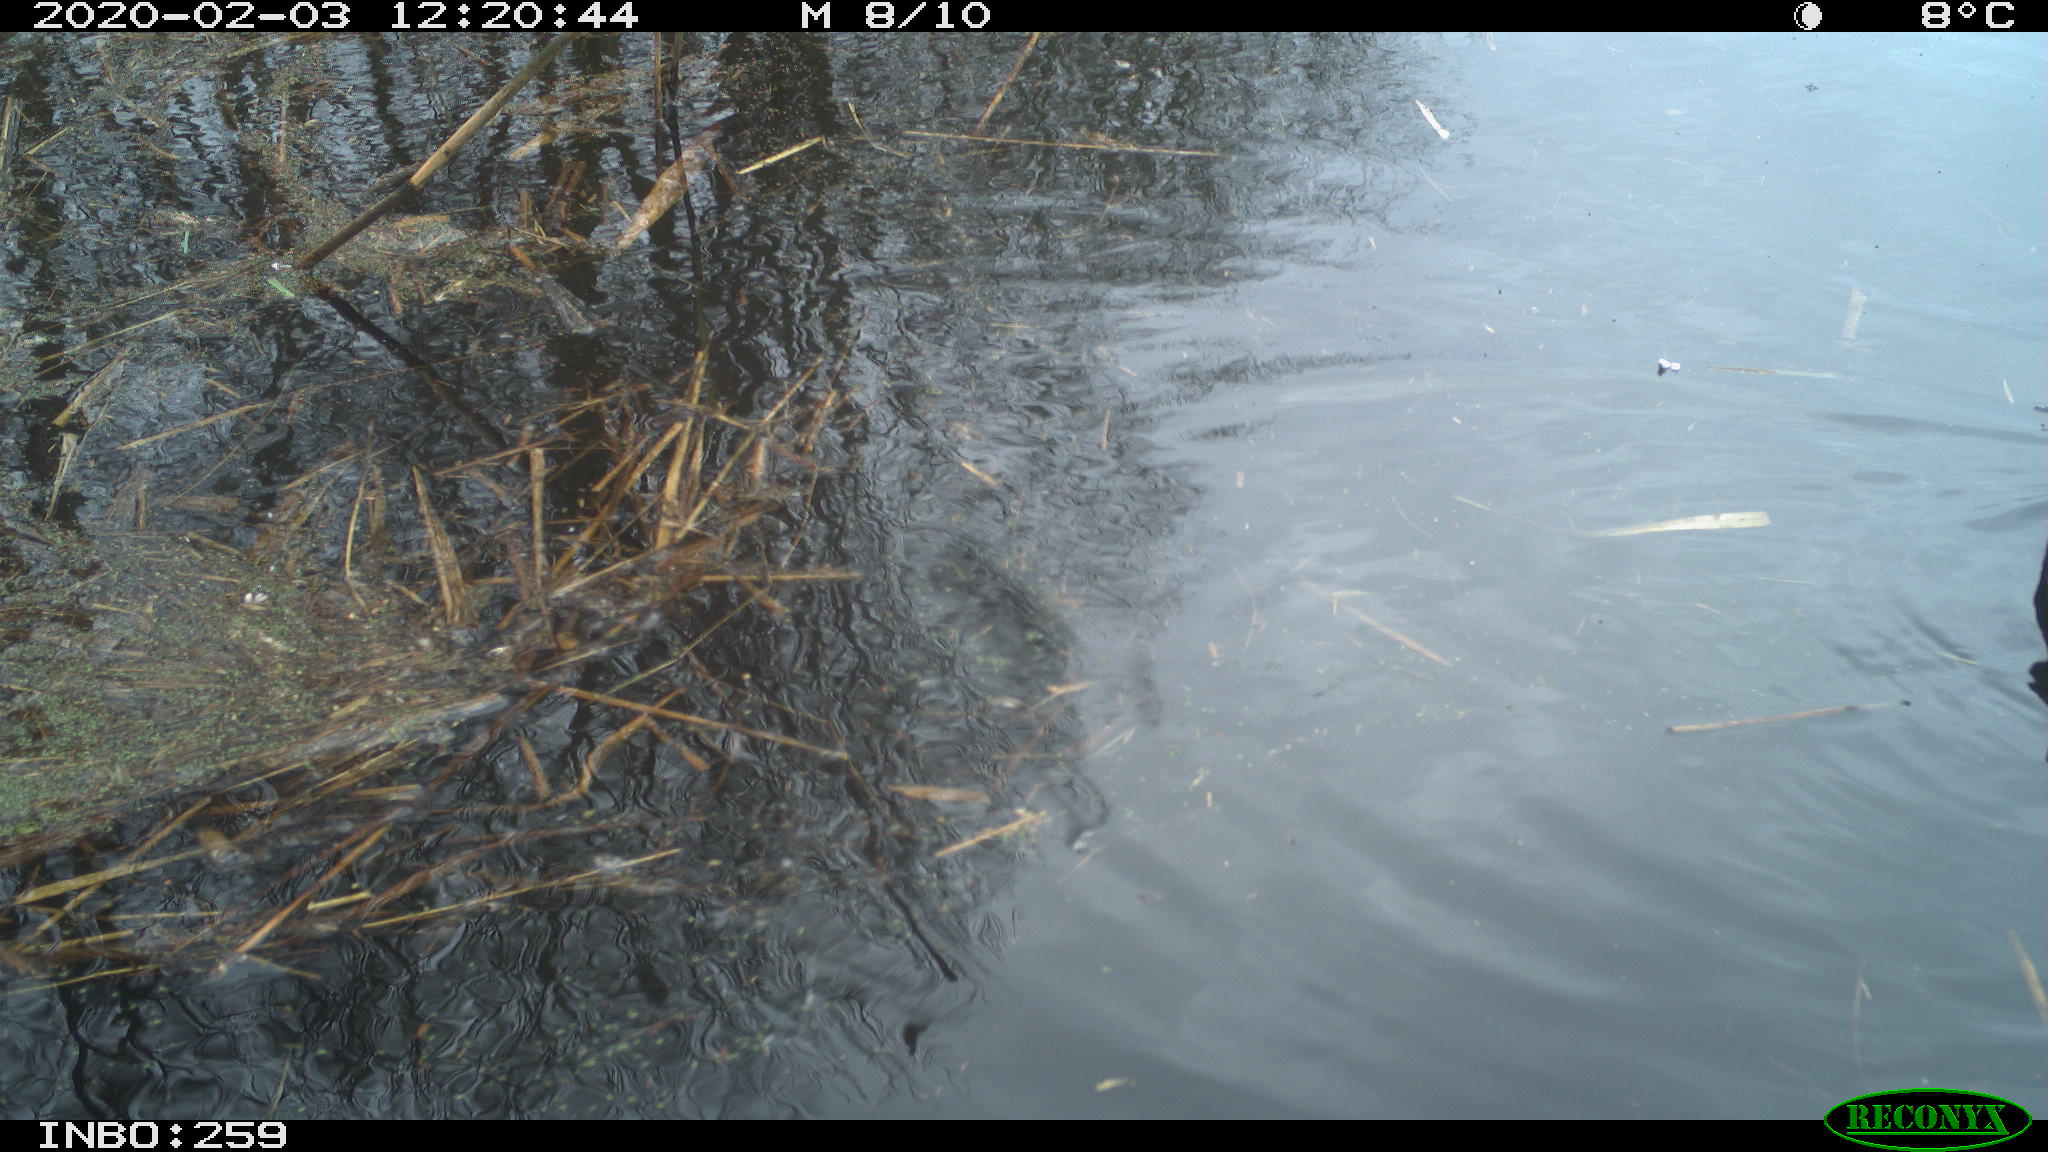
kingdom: Animalia
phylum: Chordata
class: Aves
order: Gruiformes
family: Rallidae
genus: Gallinula
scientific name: Gallinula chloropus
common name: Common moorhen
